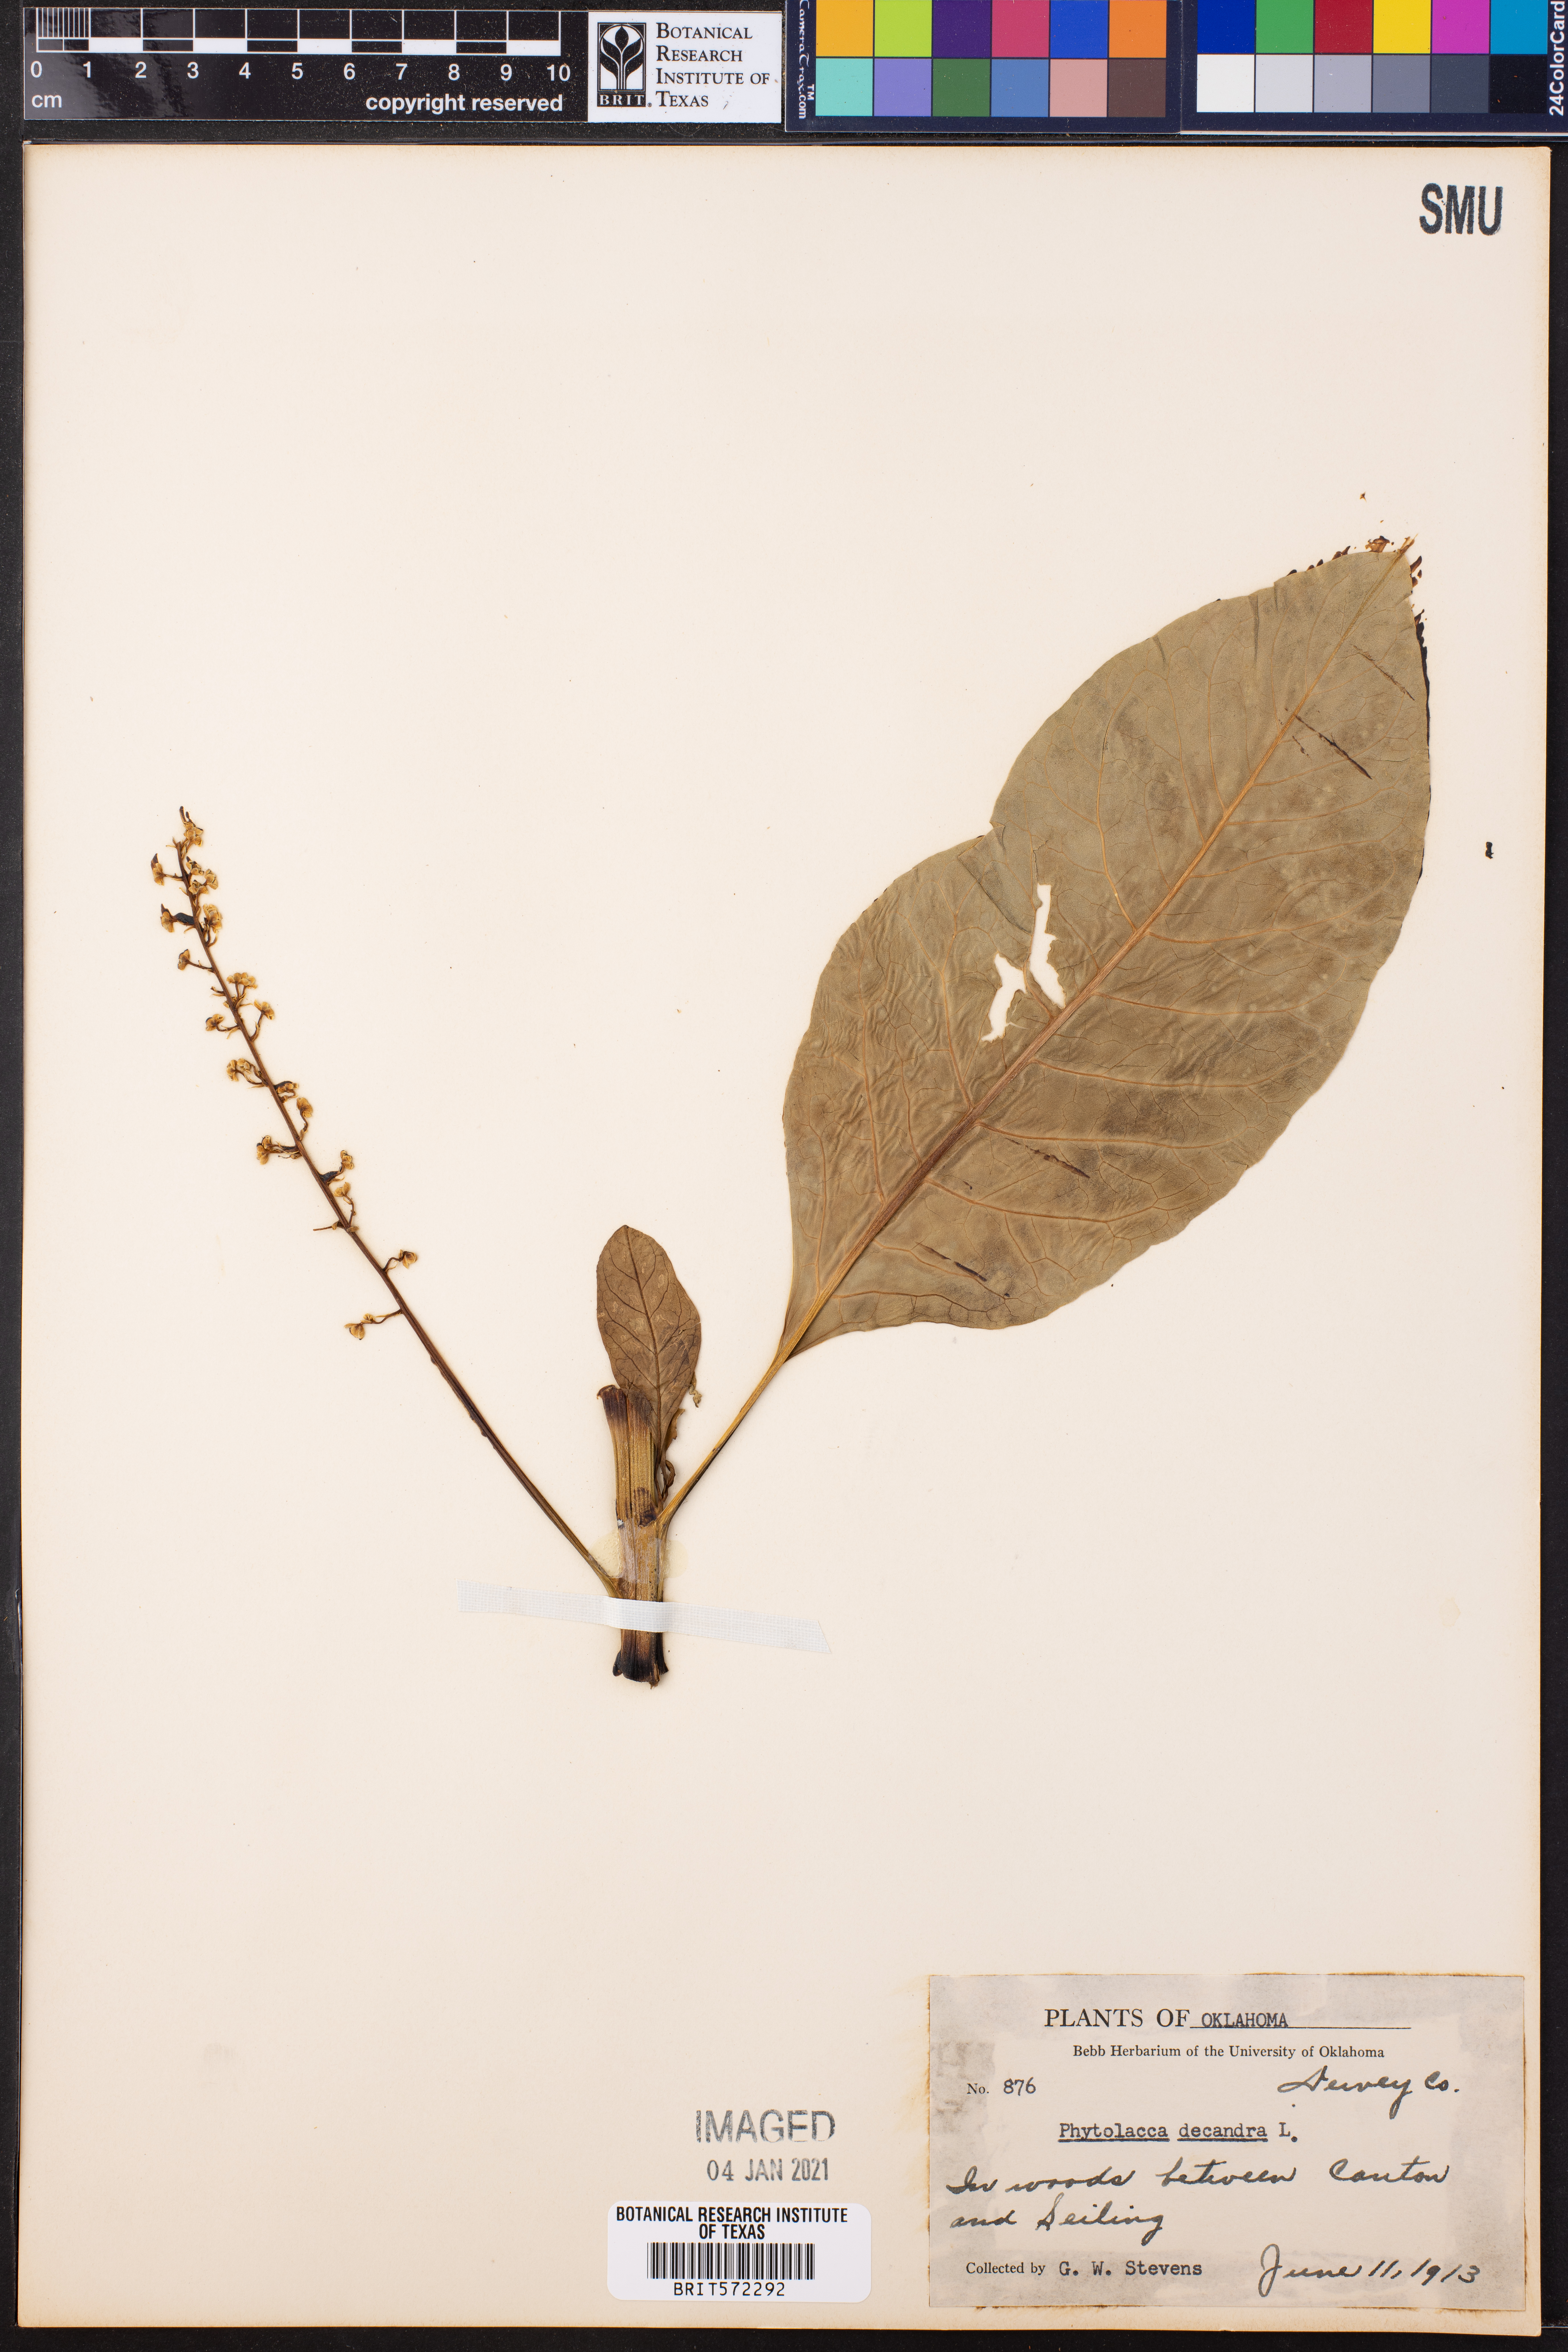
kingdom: Plantae
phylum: Tracheophyta
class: Magnoliopsida
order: Caryophyllales
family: Phytolaccaceae
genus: Phytolacca
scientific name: Phytolacca americana
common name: American pokeweed
